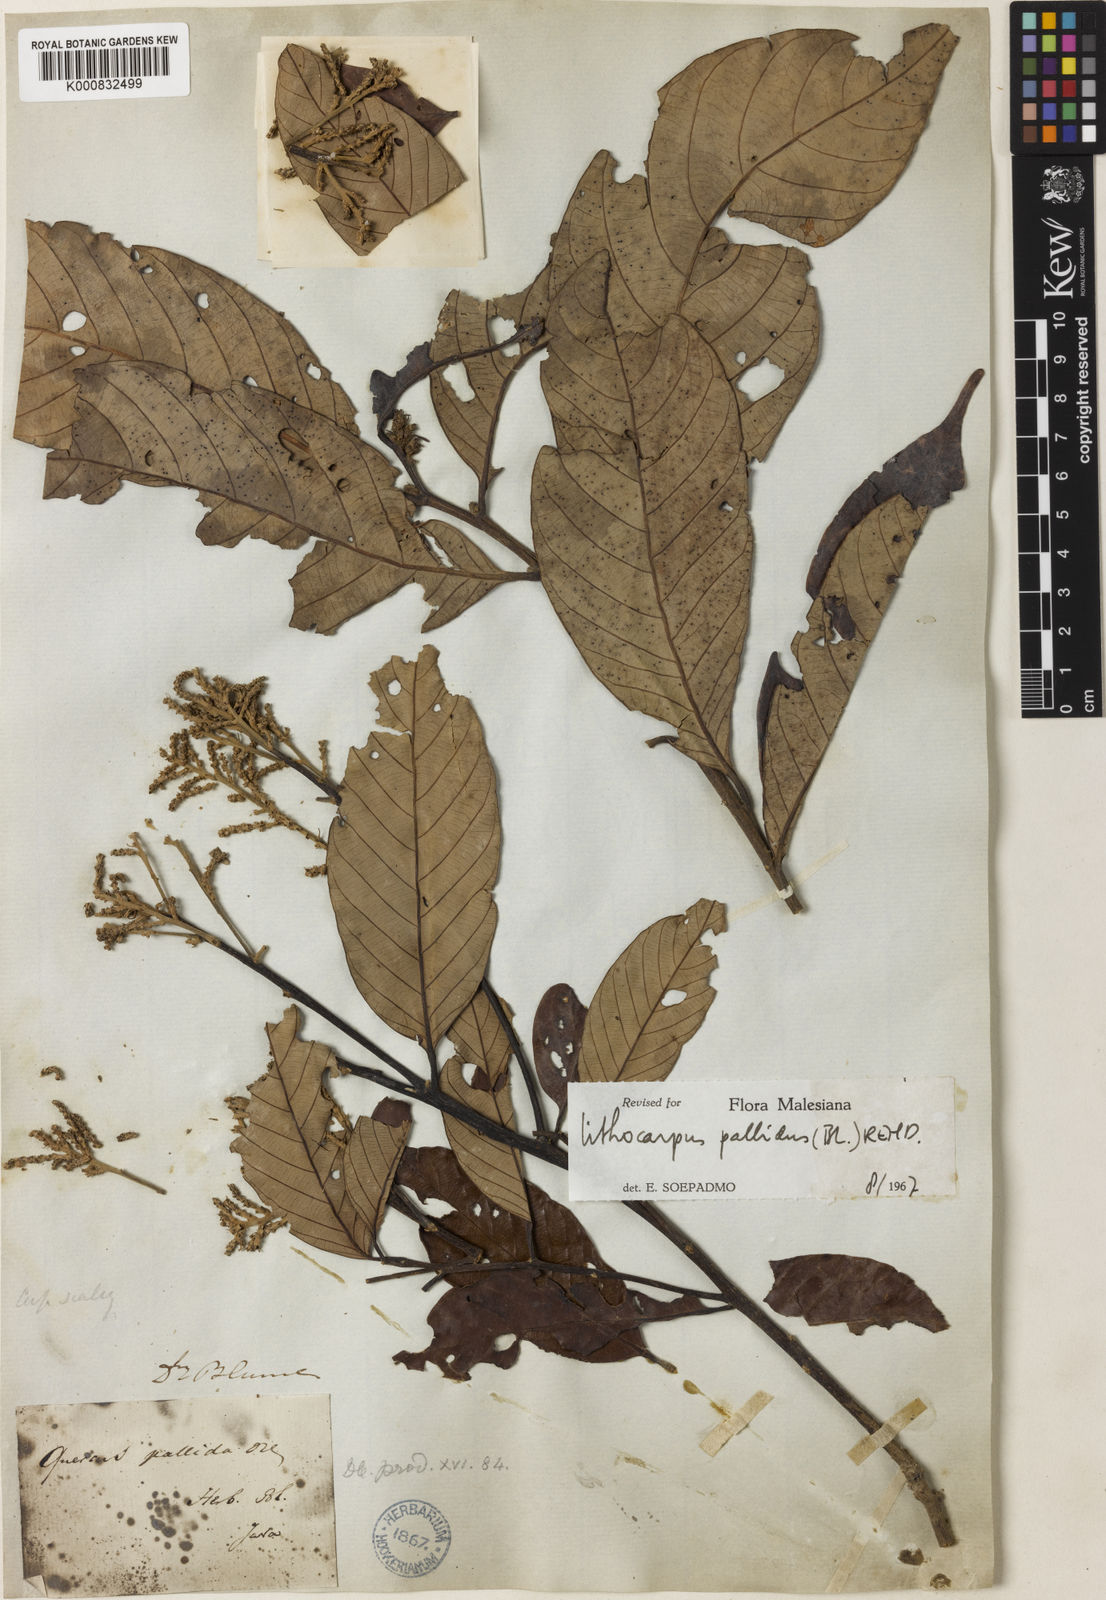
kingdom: Plantae
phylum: Tracheophyta
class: Magnoliopsida
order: Fagales
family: Fagaceae
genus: Lithocarpus
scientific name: Lithocarpus pallidus
